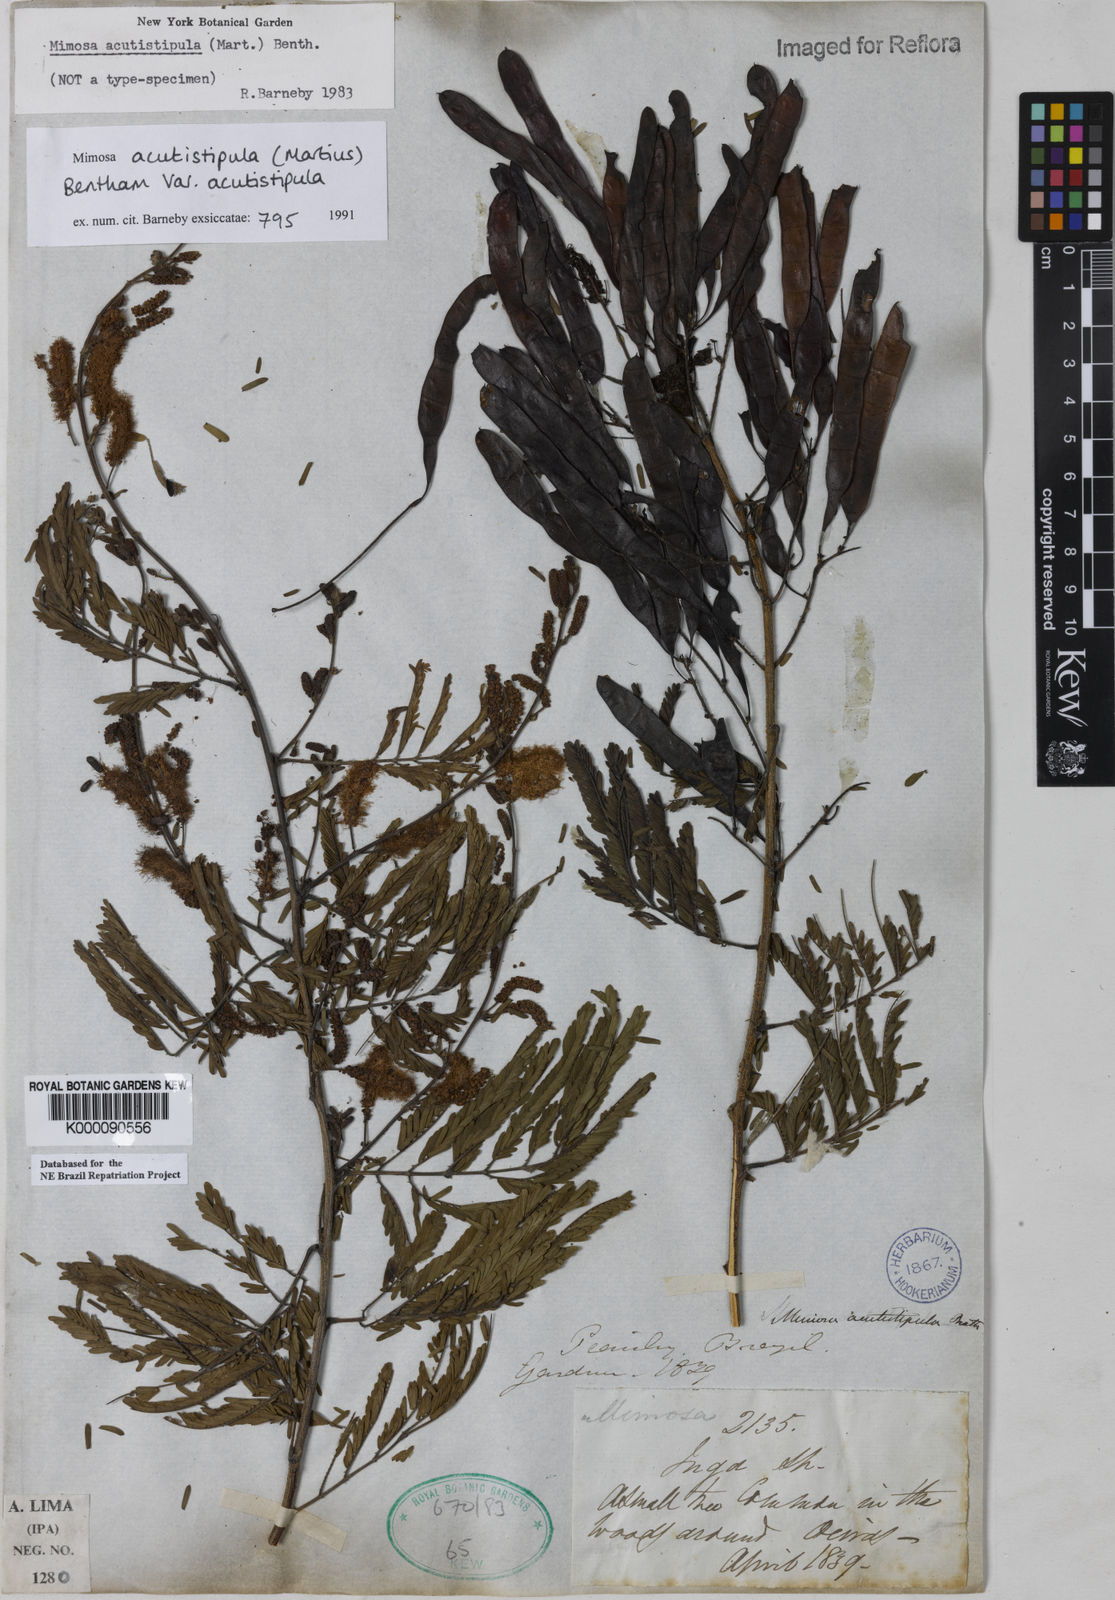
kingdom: Plantae
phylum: Tracheophyta
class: Magnoliopsida
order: Fabales
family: Fabaceae
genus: Mimosa
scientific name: Mimosa acutistipula
